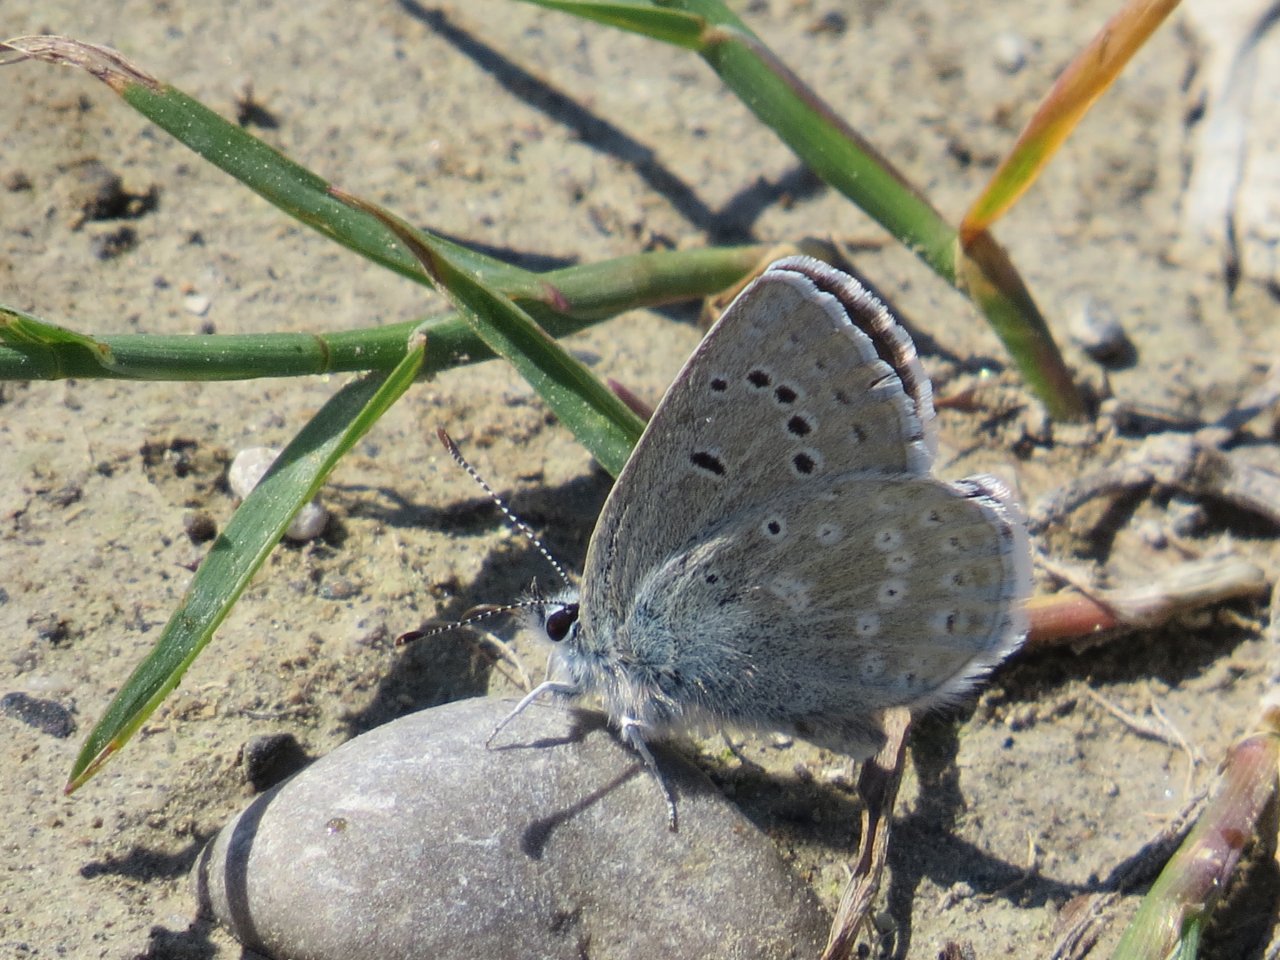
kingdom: Animalia
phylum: Arthropoda
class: Insecta
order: Lepidoptera
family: Lycaenidae
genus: Icaricia
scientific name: Icaricia icarioides
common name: Boisduval's Blue
